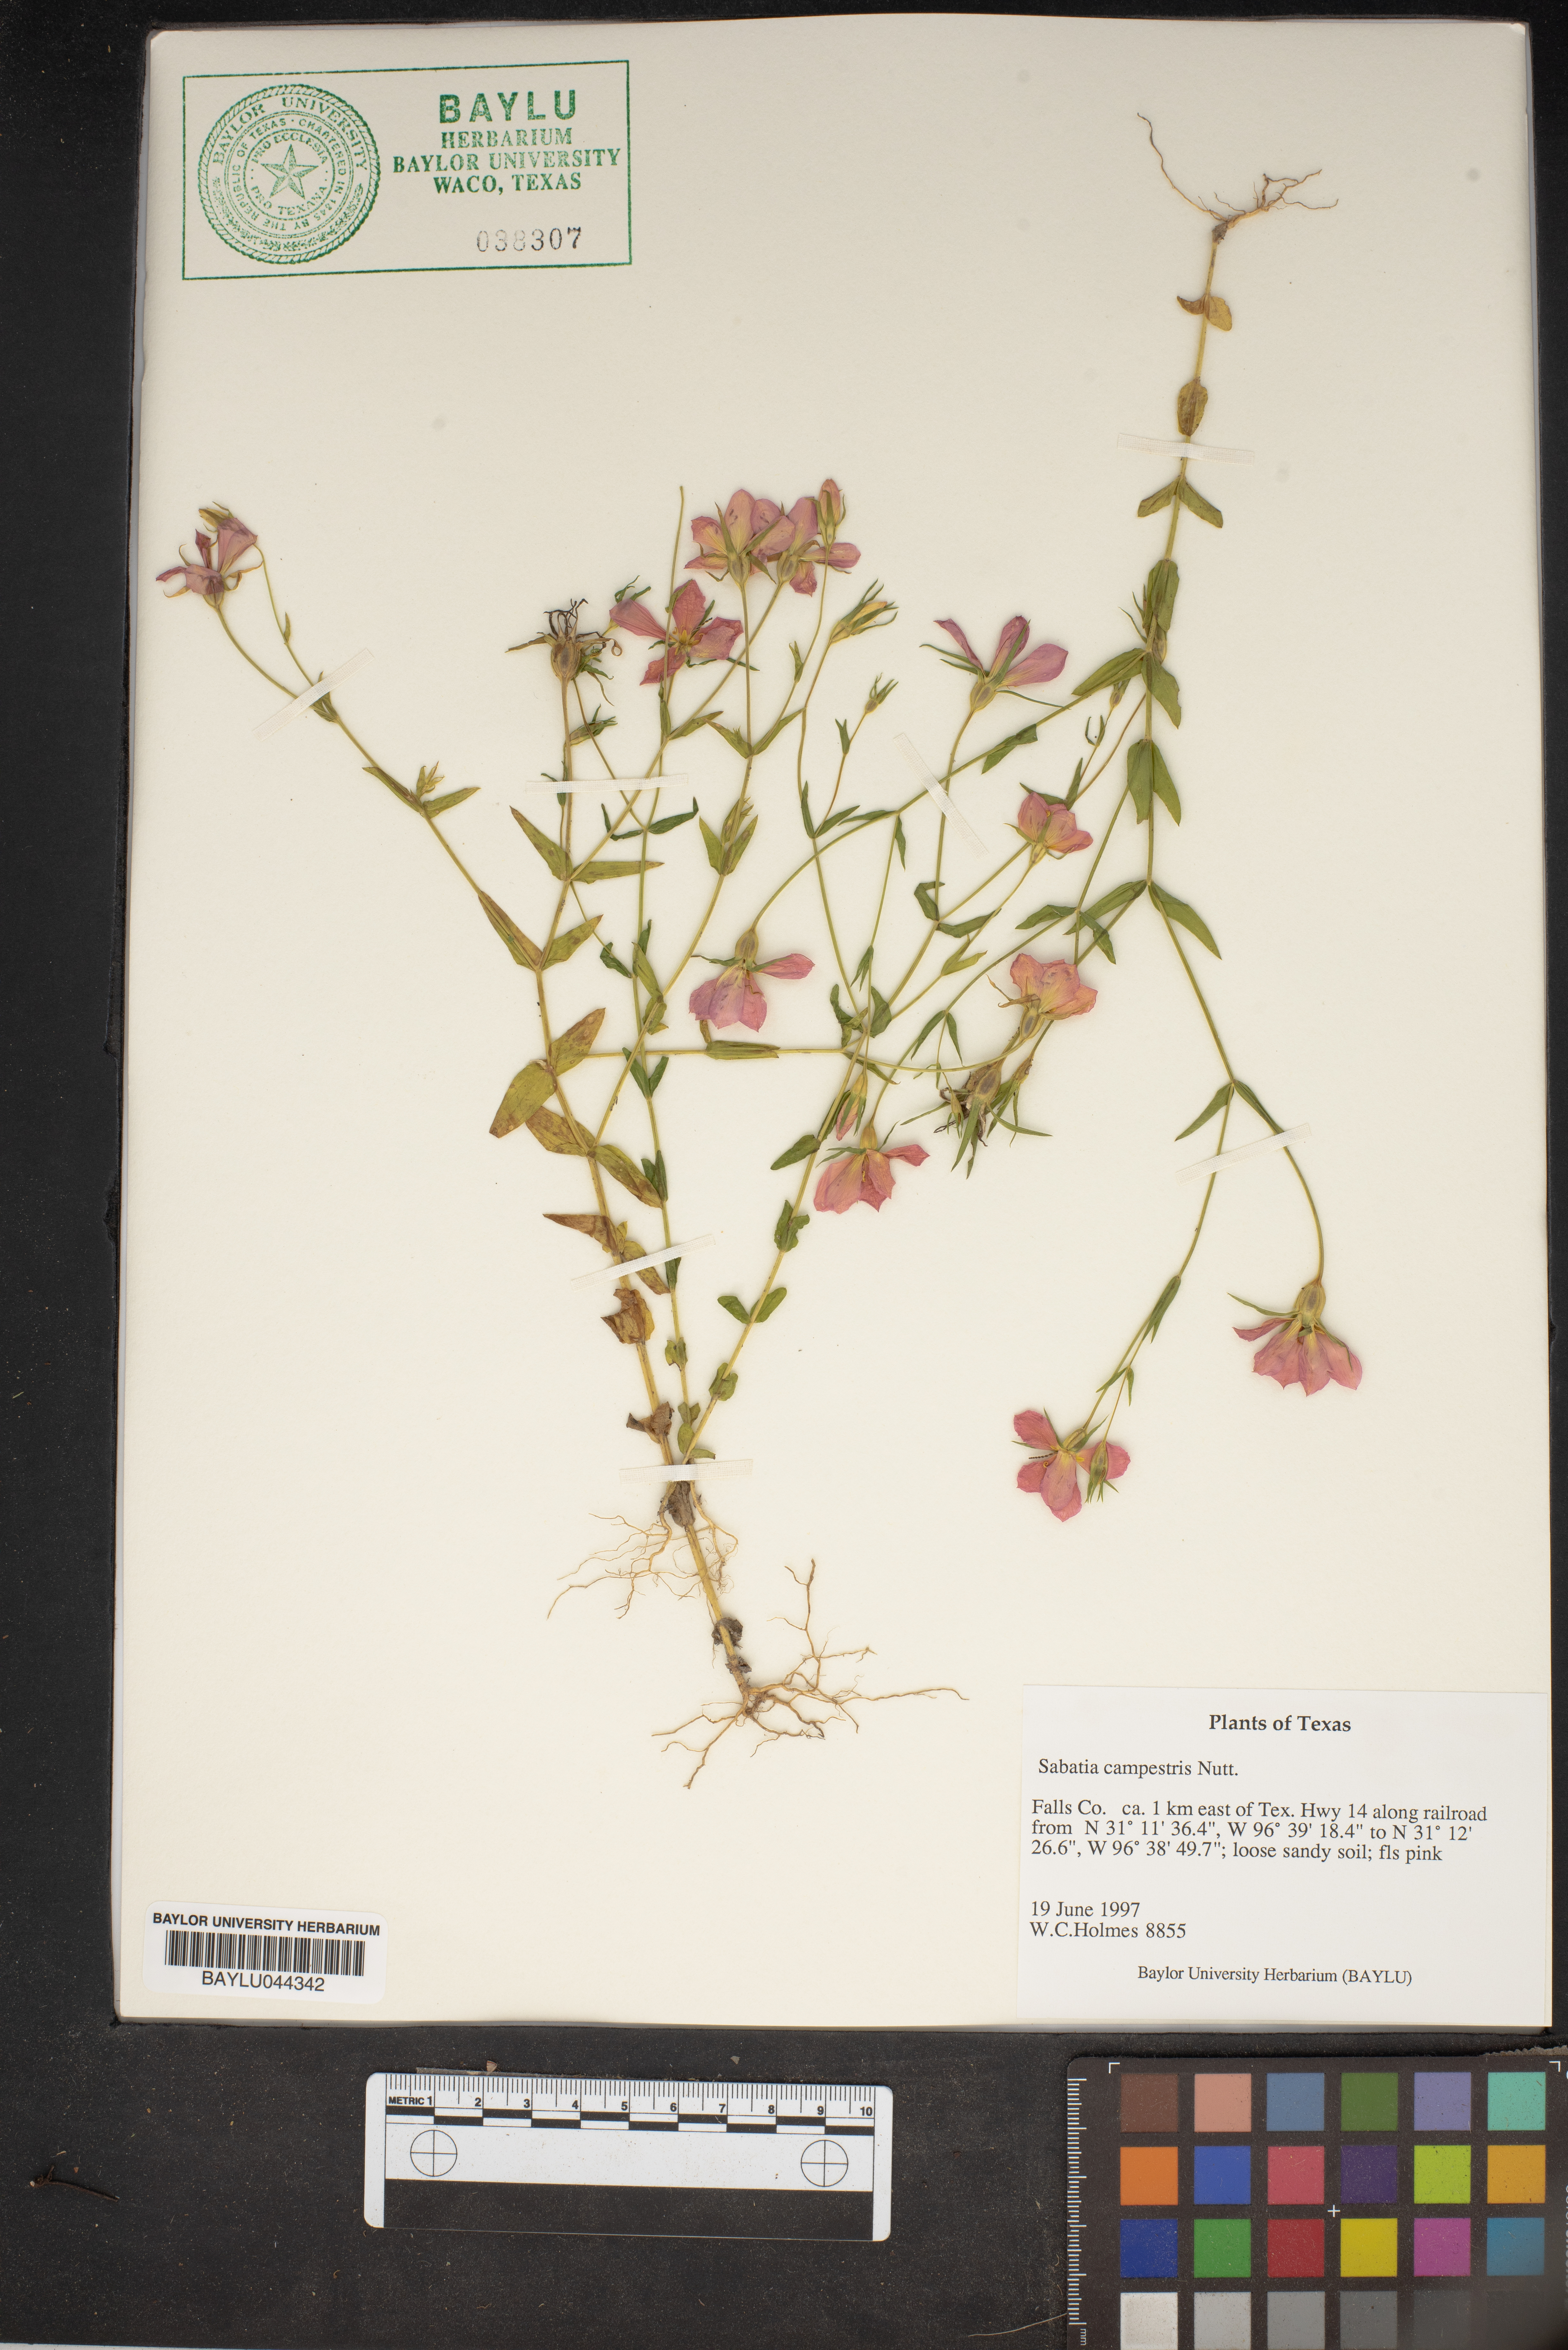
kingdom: Plantae
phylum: Tracheophyta
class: Magnoliopsida
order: Gentianales
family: Gentianaceae
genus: Sabatia
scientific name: Sabatia campestris
